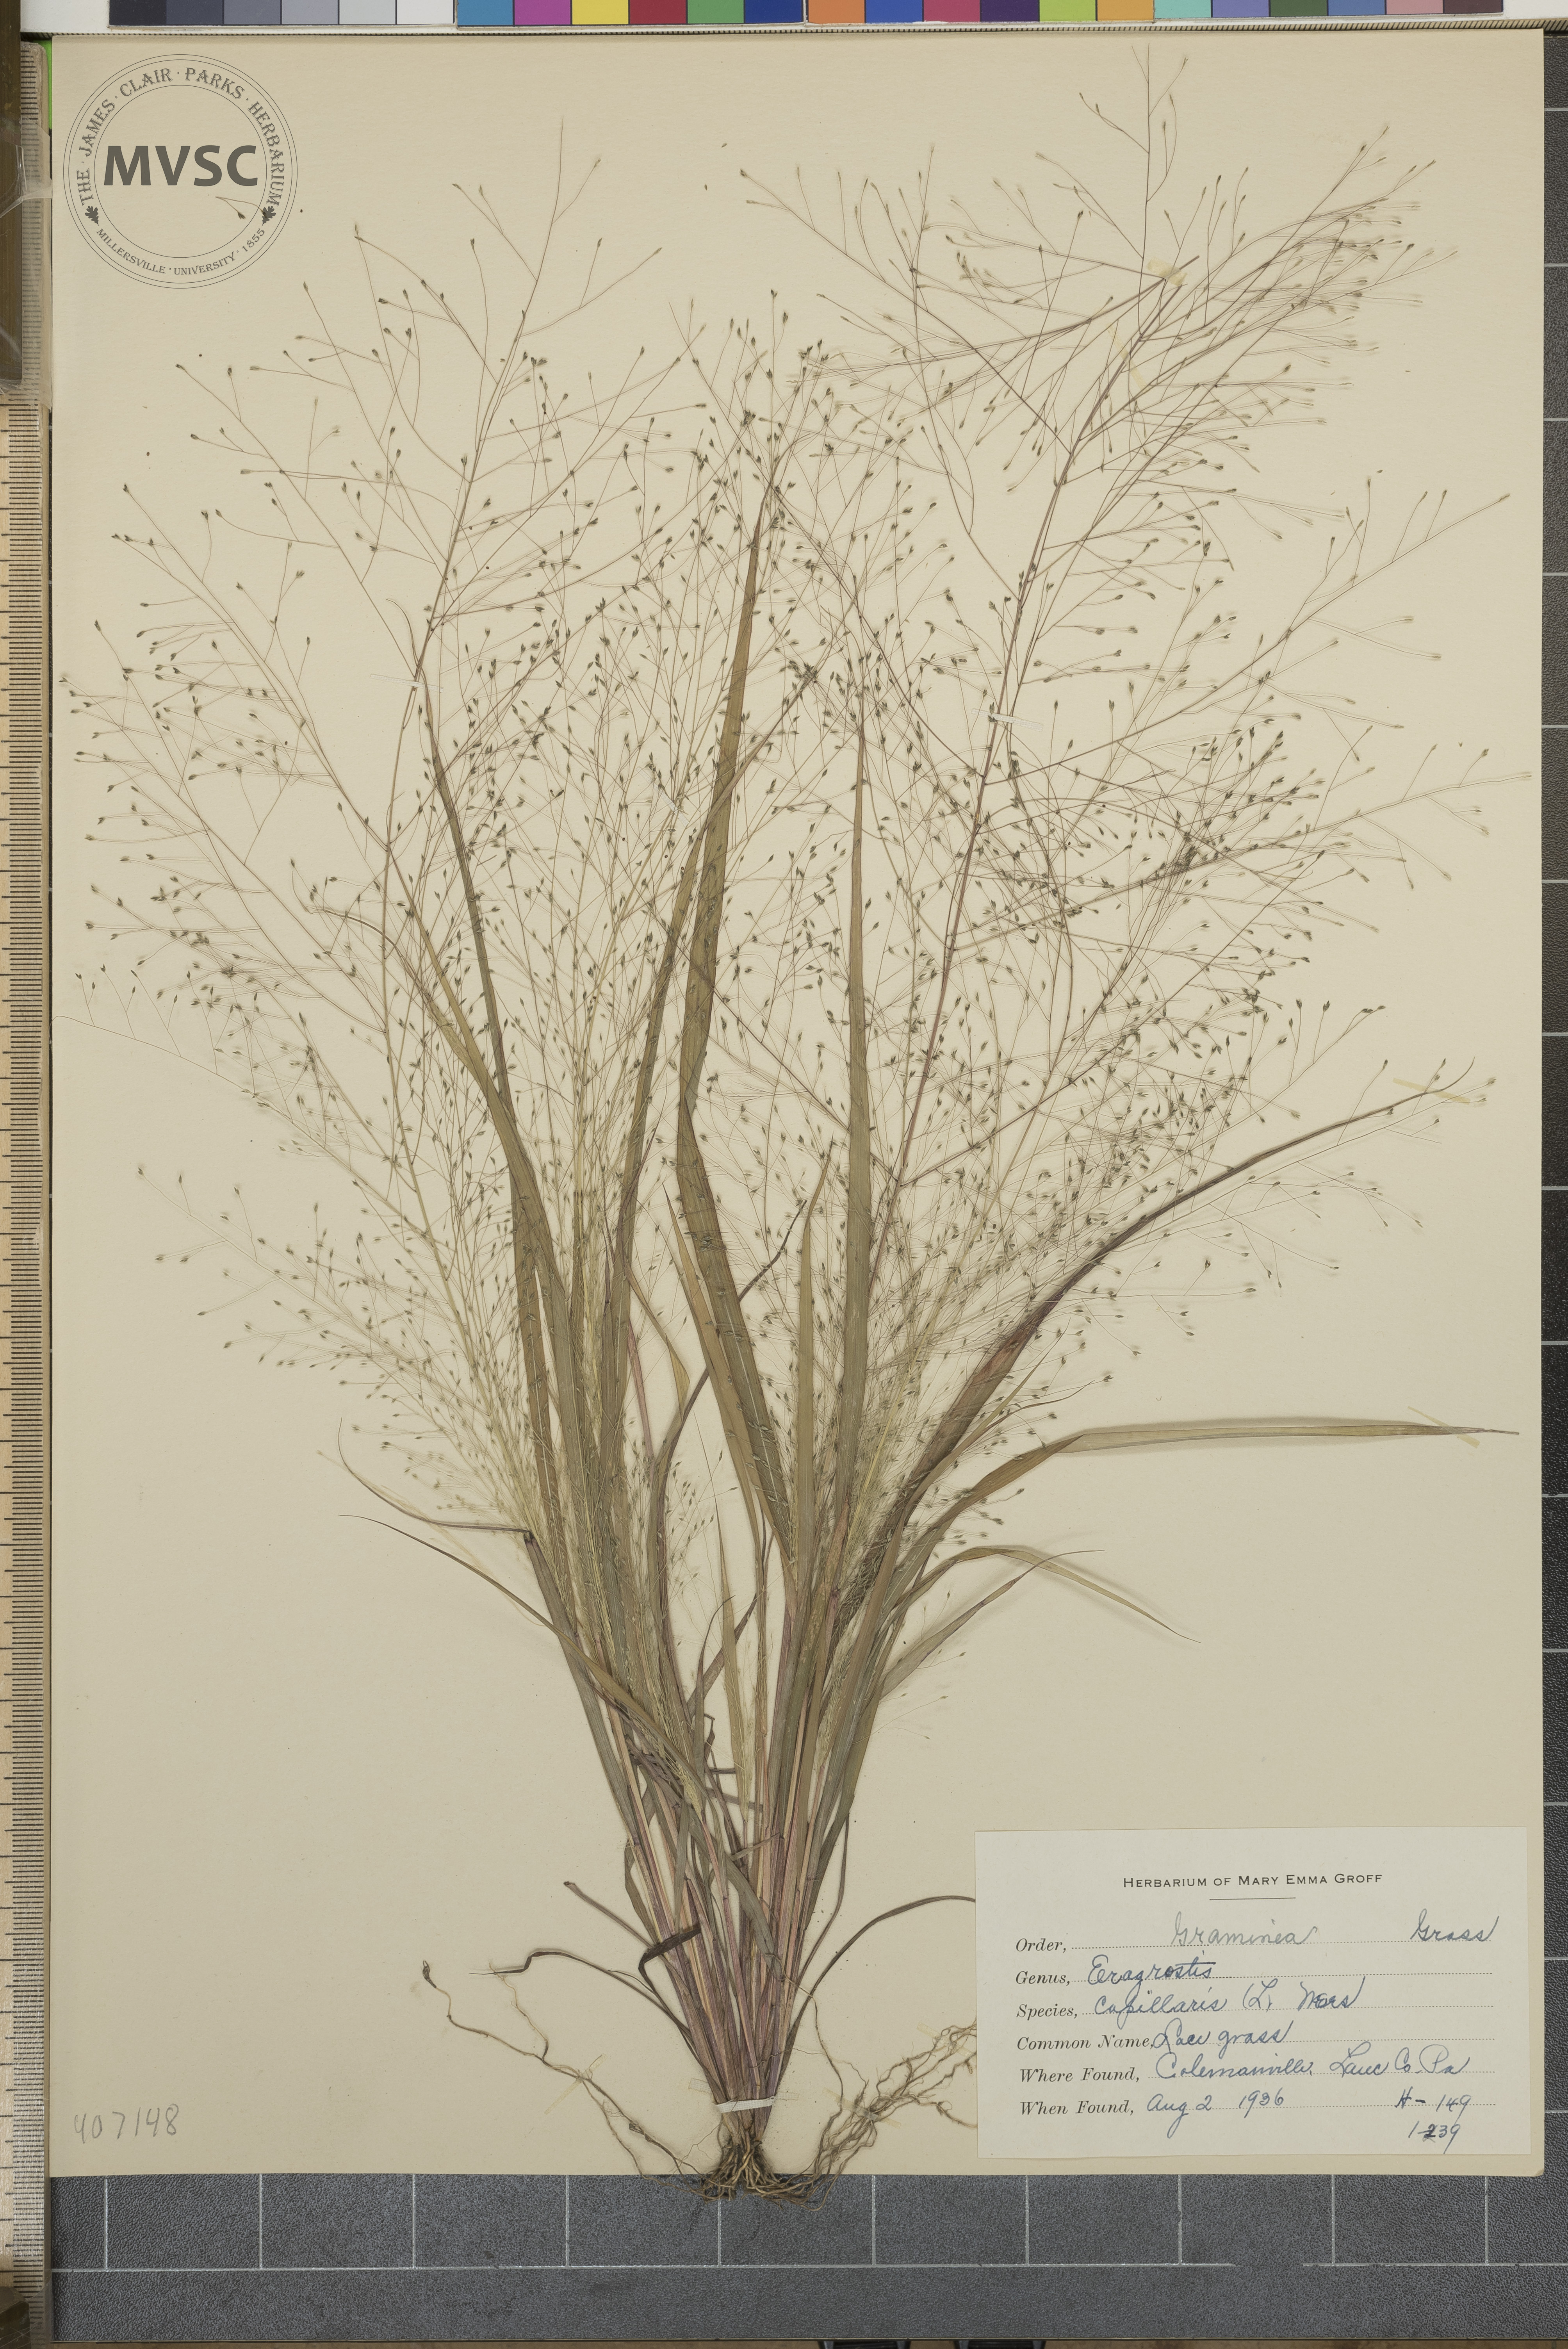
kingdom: Plantae
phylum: Tracheophyta
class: Liliopsida
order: Poales
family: Poaceae
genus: Eragrostis
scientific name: Eragrostis capillaris
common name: Hair-like lovegrass
